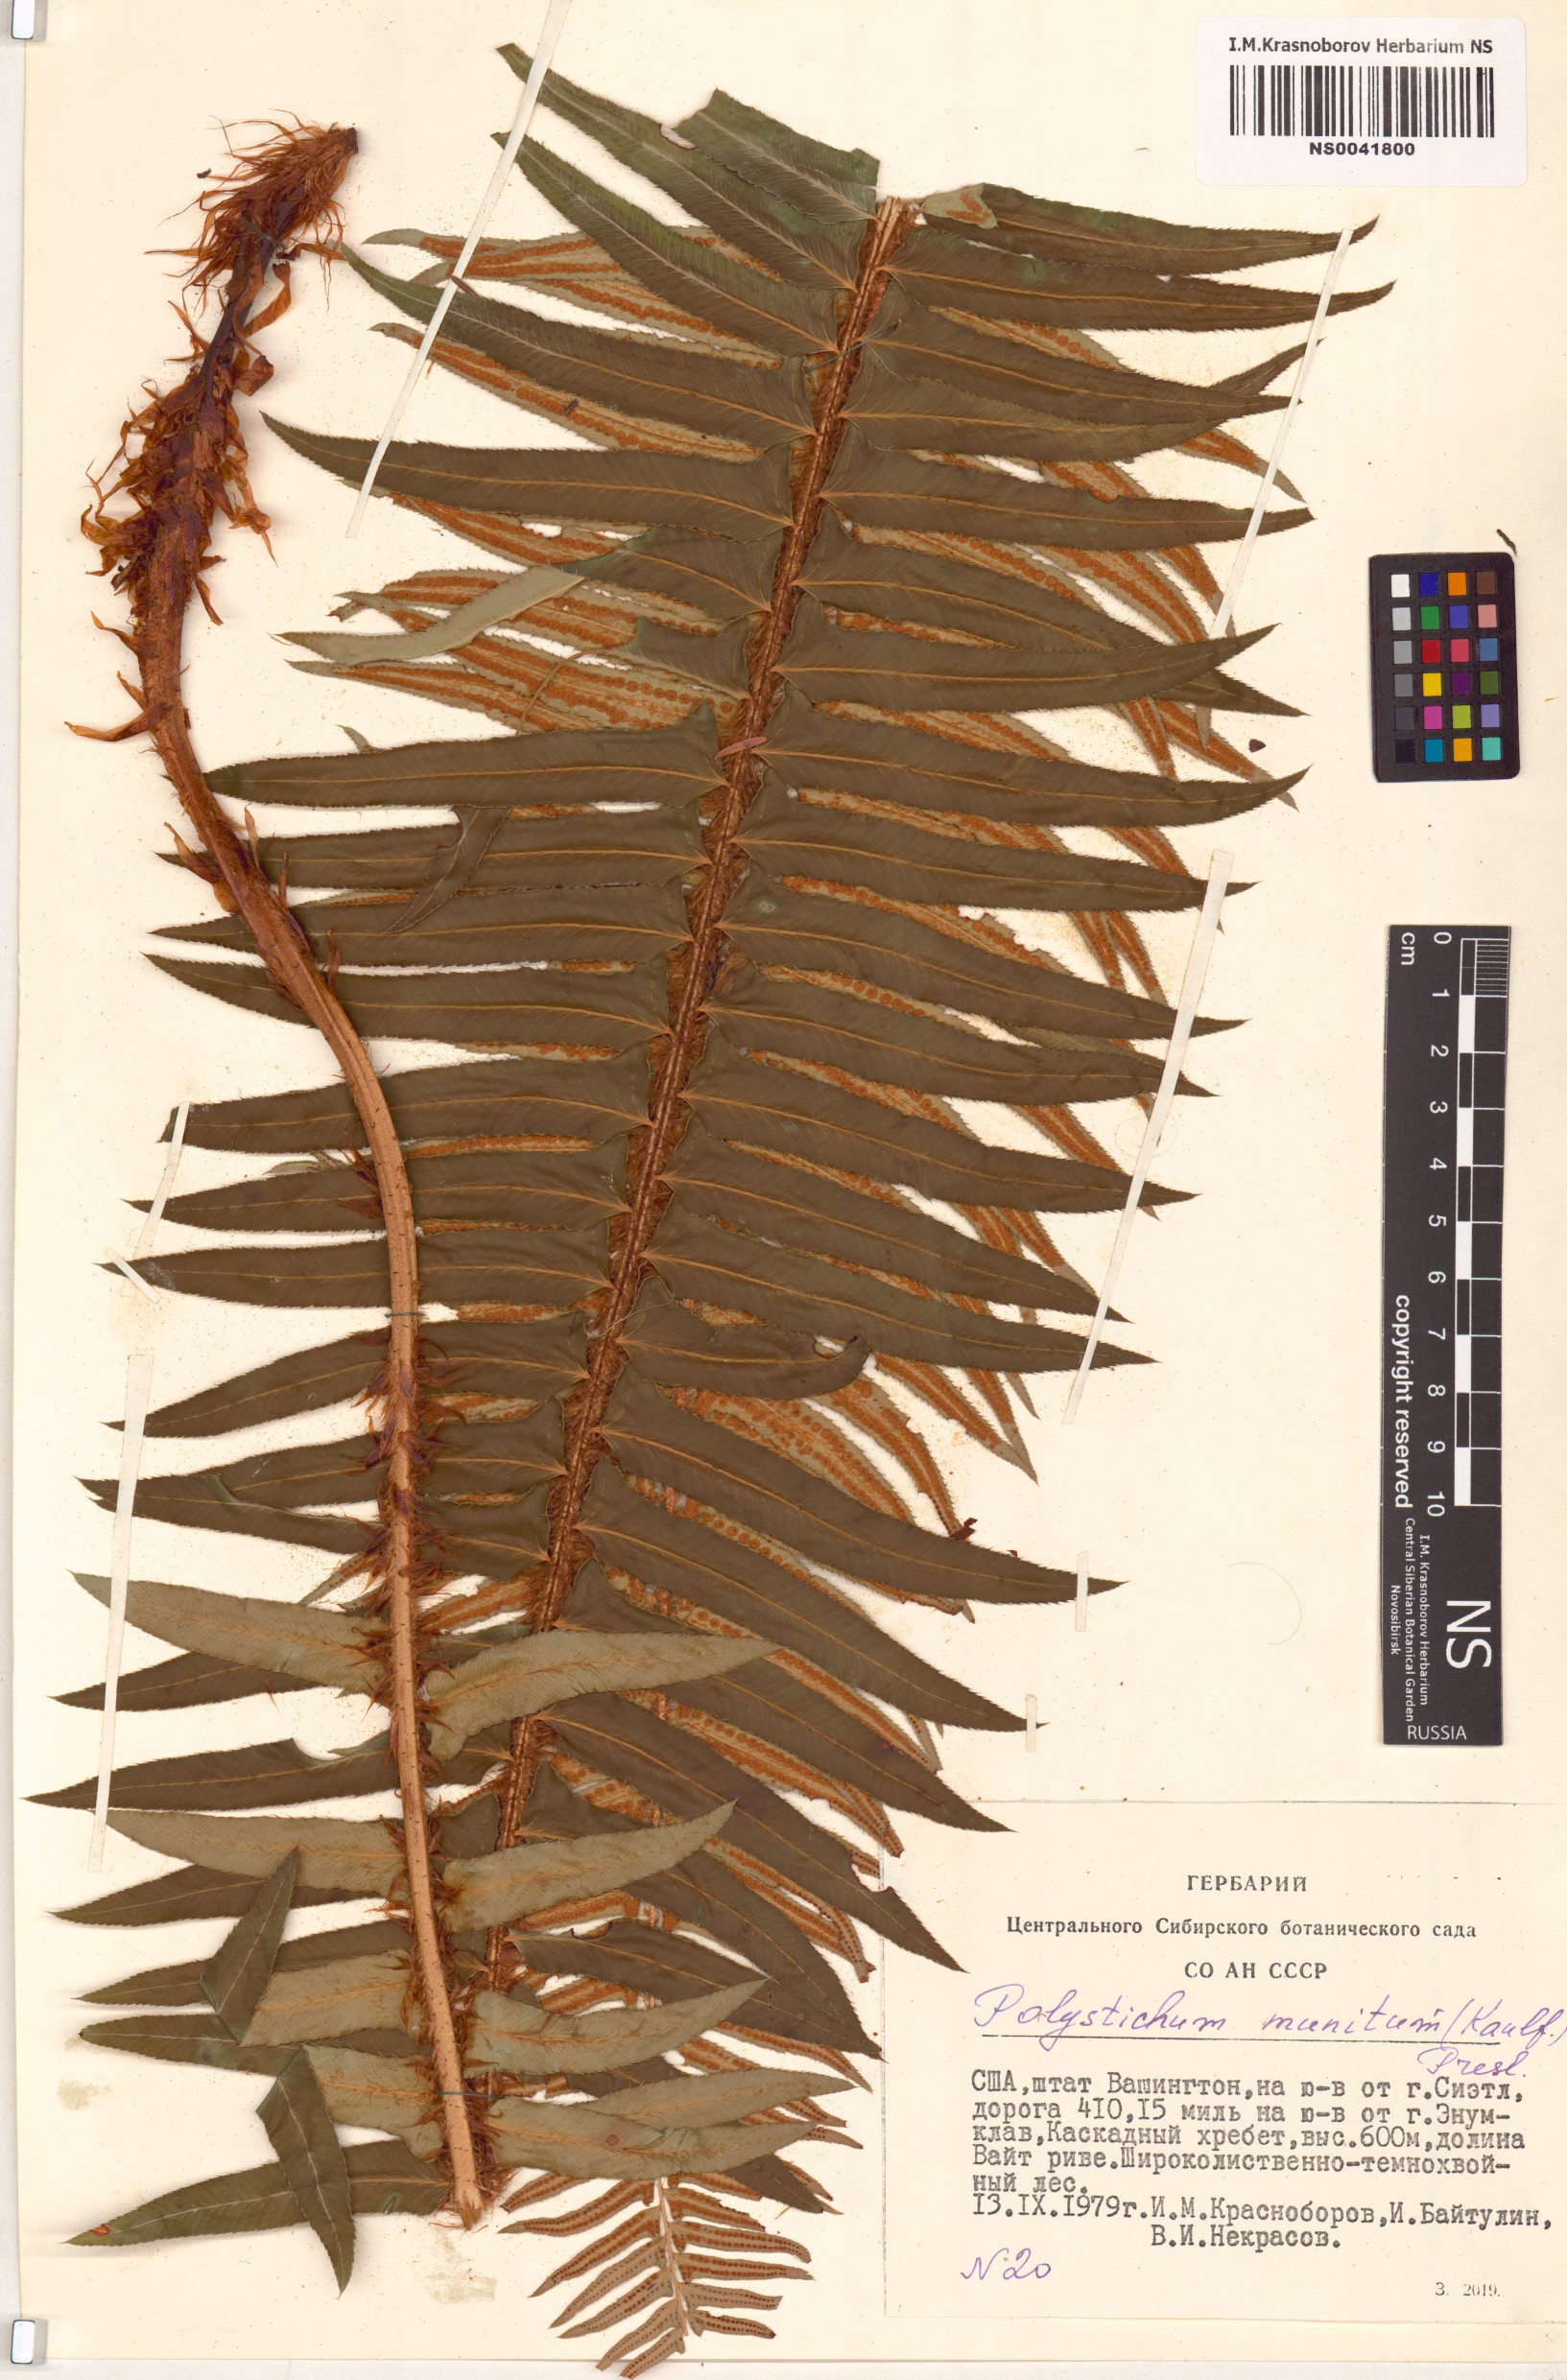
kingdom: Plantae
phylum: Tracheophyta
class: Polypodiopsida
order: Polypodiales
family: Dryopteridaceae
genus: Polystichum
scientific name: Polystichum munitum
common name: Western sword-fern
